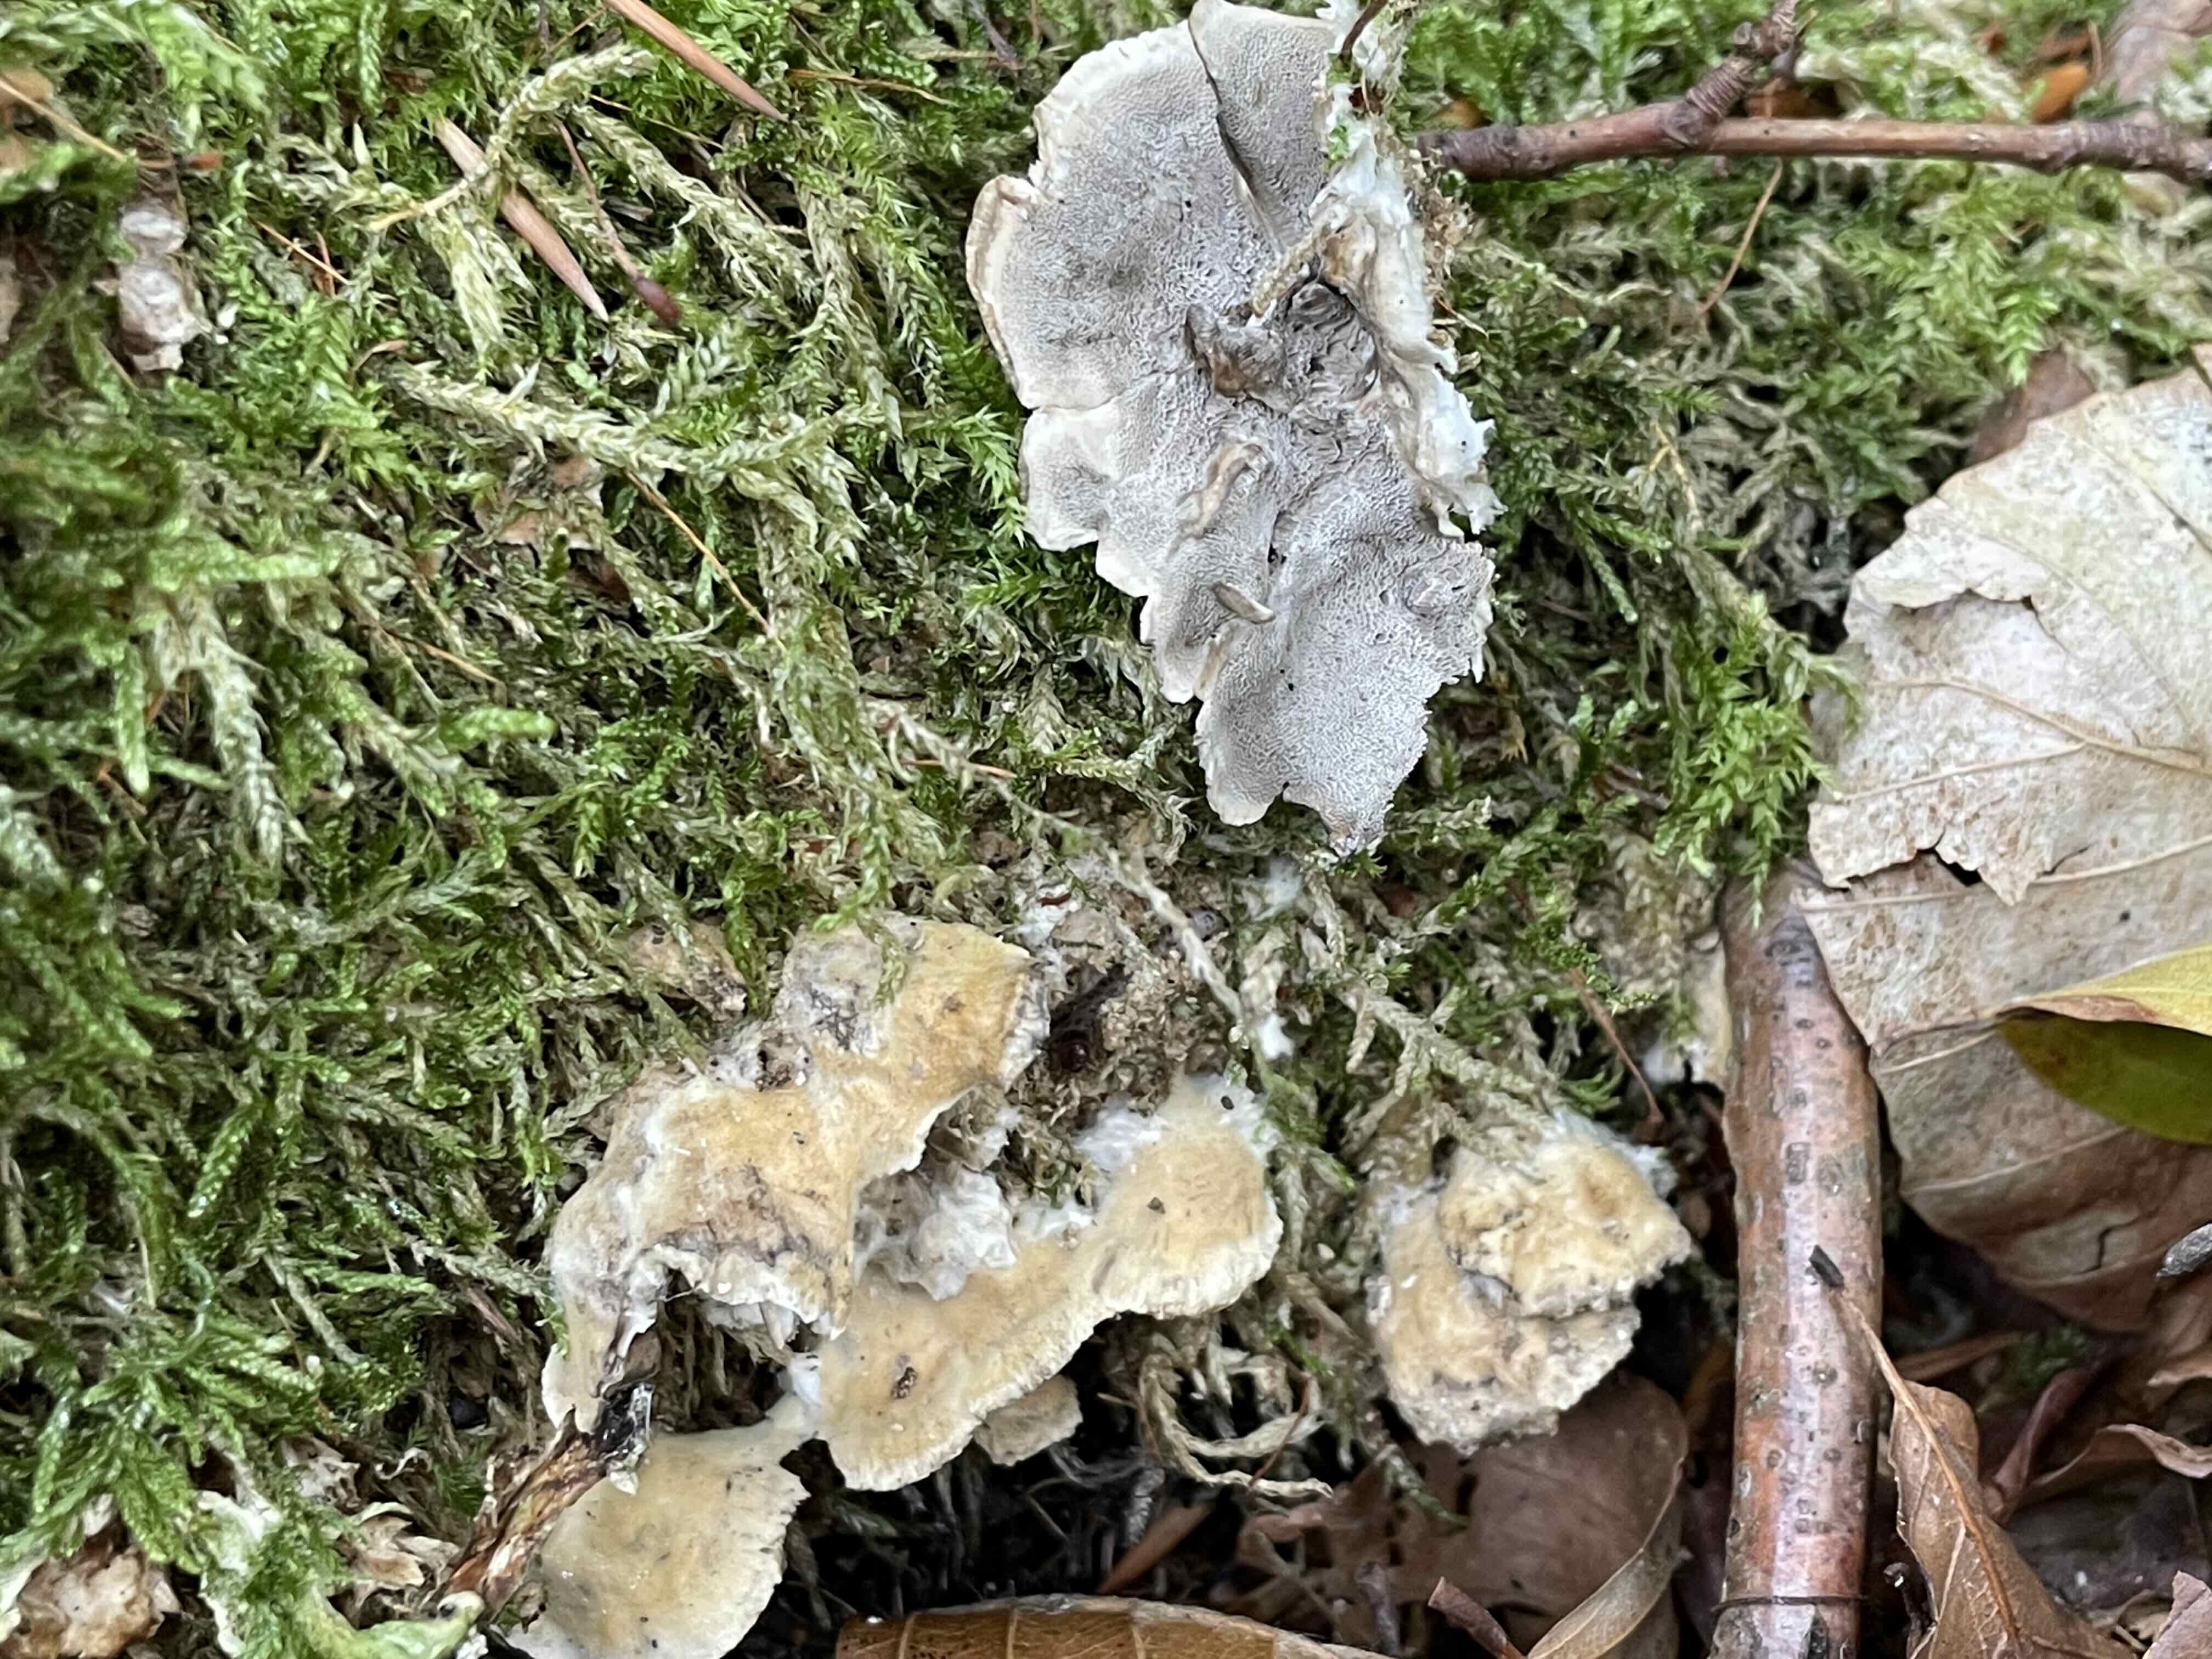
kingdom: Fungi
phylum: Basidiomycota
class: Agaricomycetes
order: Polyporales
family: Phanerochaetaceae
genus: Bjerkandera
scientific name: Bjerkandera adusta
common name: sveden sodporesvamp
